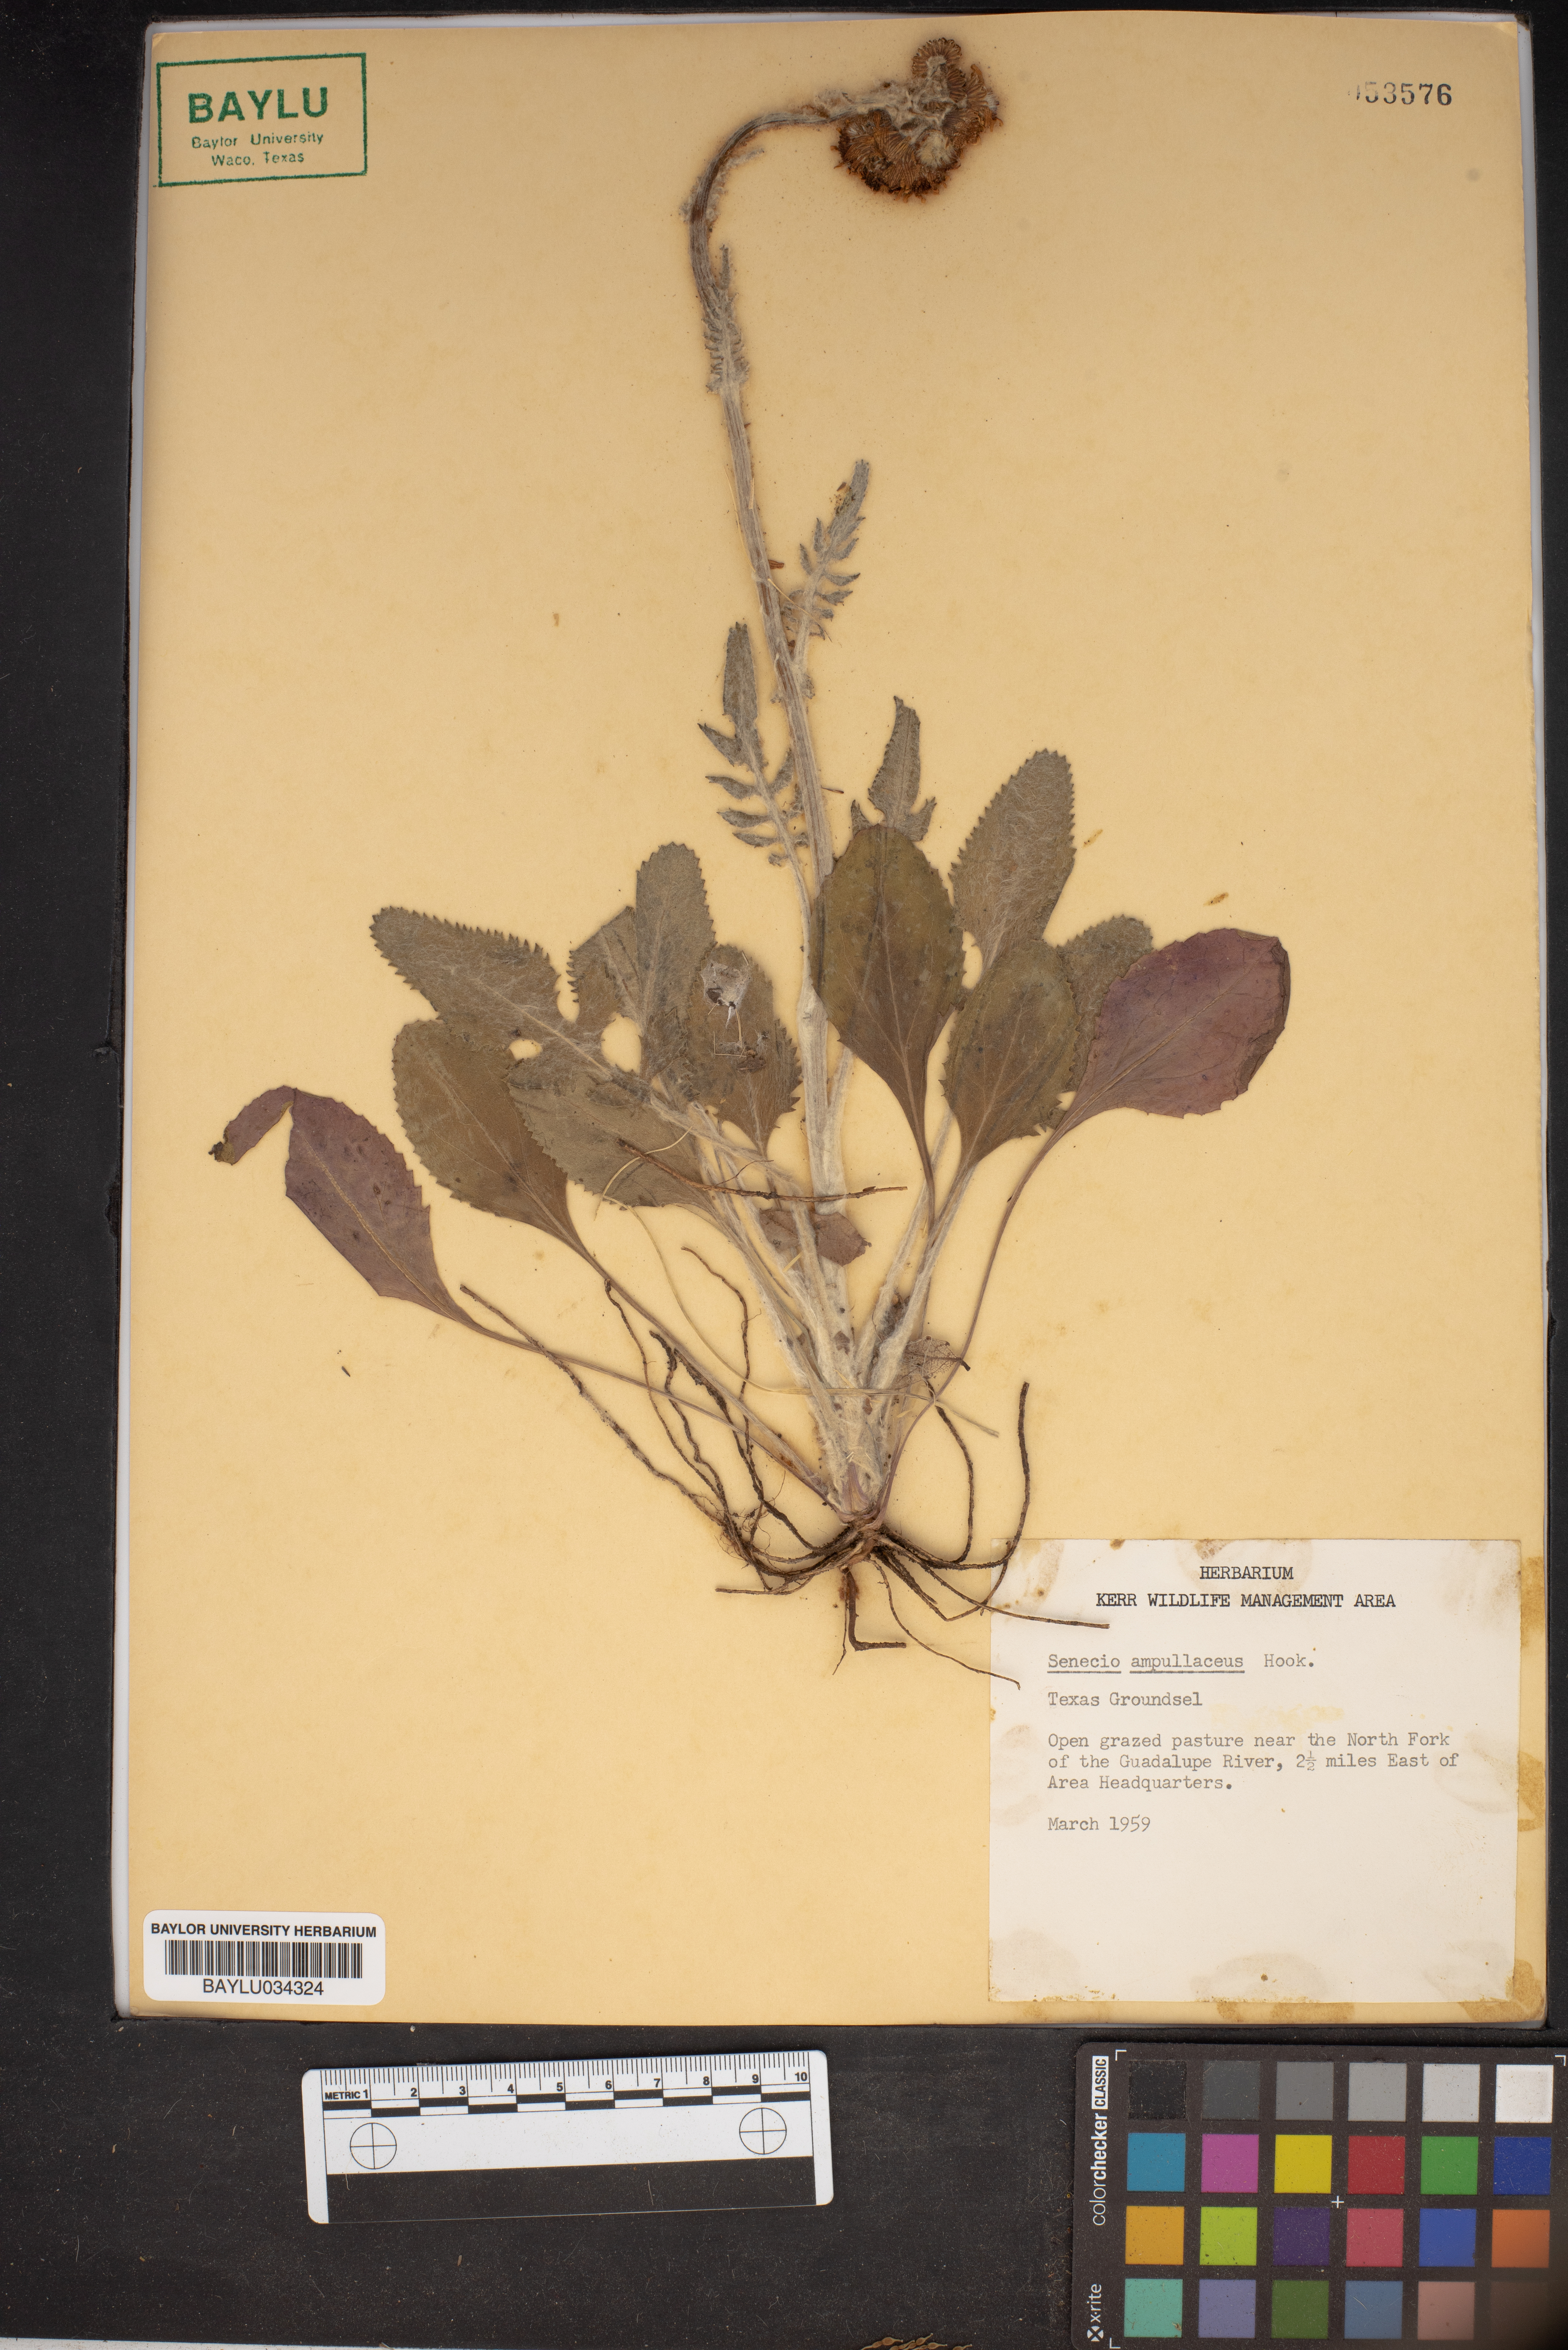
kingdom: Plantae
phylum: Tracheophyta
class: Magnoliopsida
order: Asterales
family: Asteraceae
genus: Senecio
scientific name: Senecio ampullaceus
